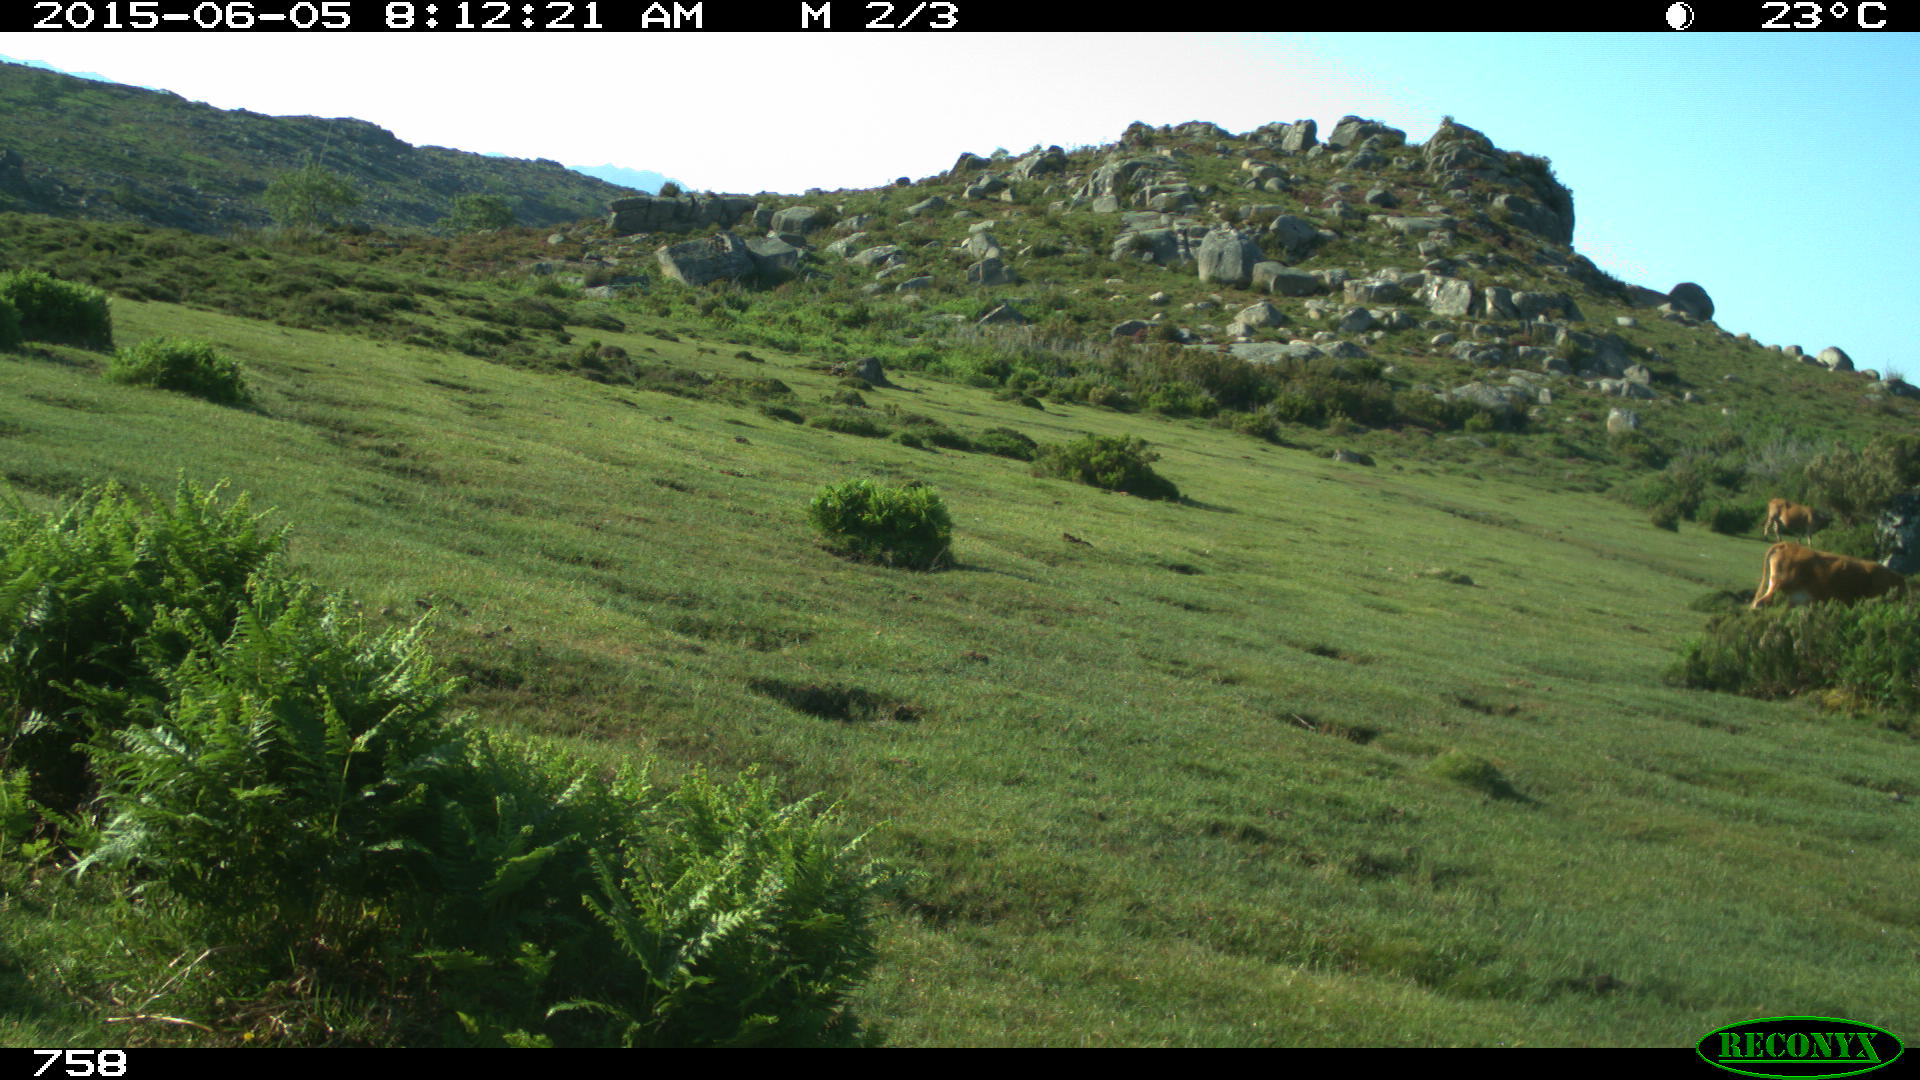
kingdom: Animalia
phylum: Chordata
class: Mammalia
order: Artiodactyla
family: Bovidae
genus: Bos
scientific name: Bos taurus
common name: Domesticated cattle
